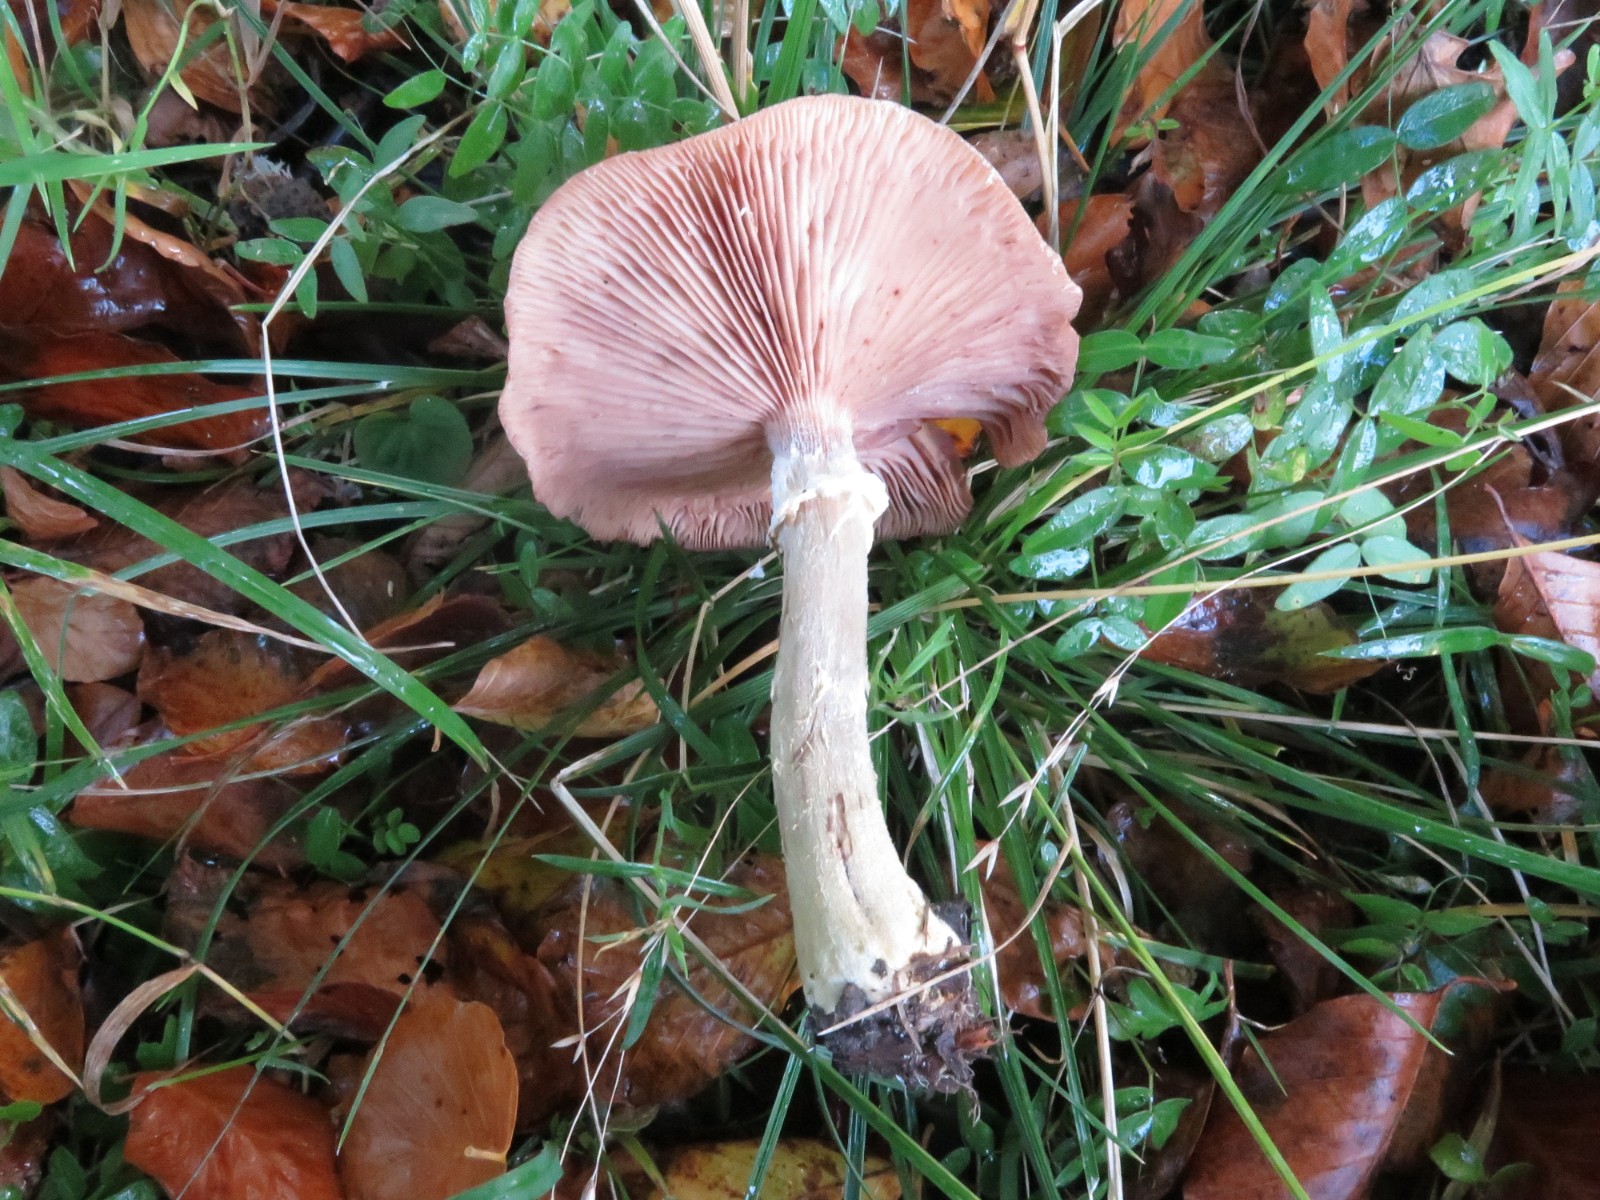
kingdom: Fungi
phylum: Basidiomycota
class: Agaricomycetes
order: Agaricales
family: Physalacriaceae
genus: Armillaria
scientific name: Armillaria lutea
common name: køllestokket honningsvamp
